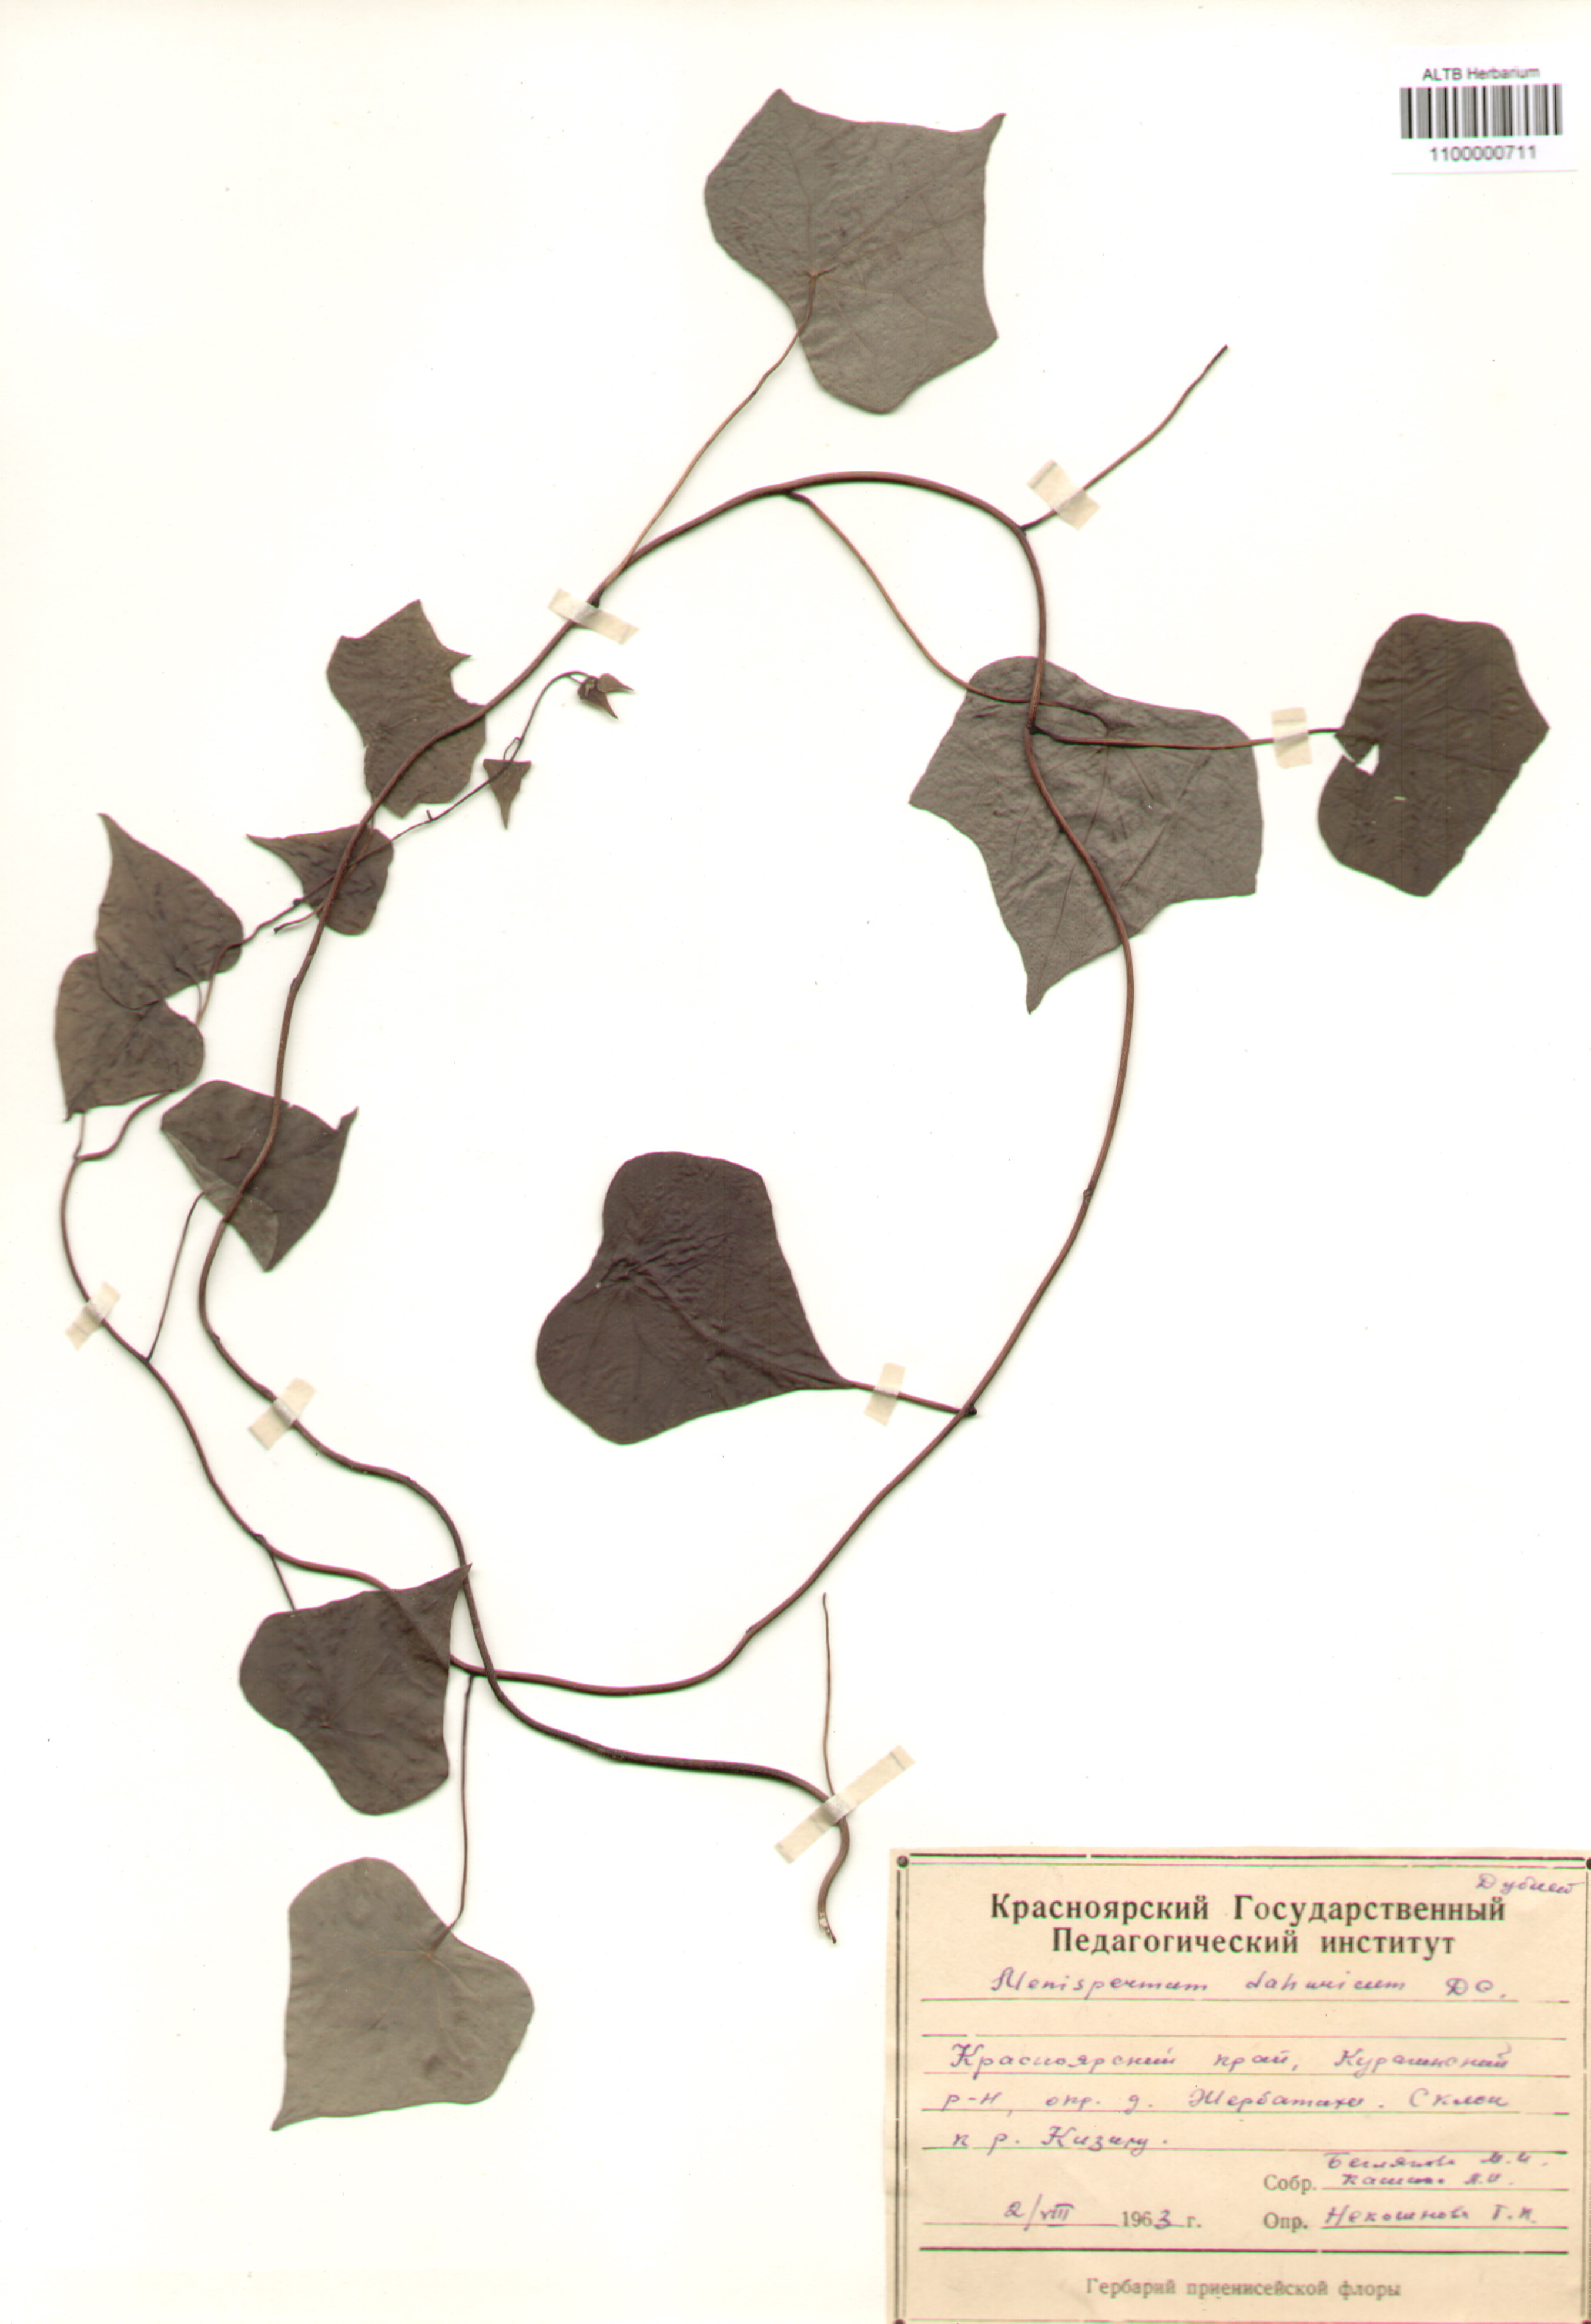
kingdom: Plantae
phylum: Tracheophyta
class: Magnoliopsida
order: Ranunculales
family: Menispermaceae
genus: Menispermum
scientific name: Menispermum
